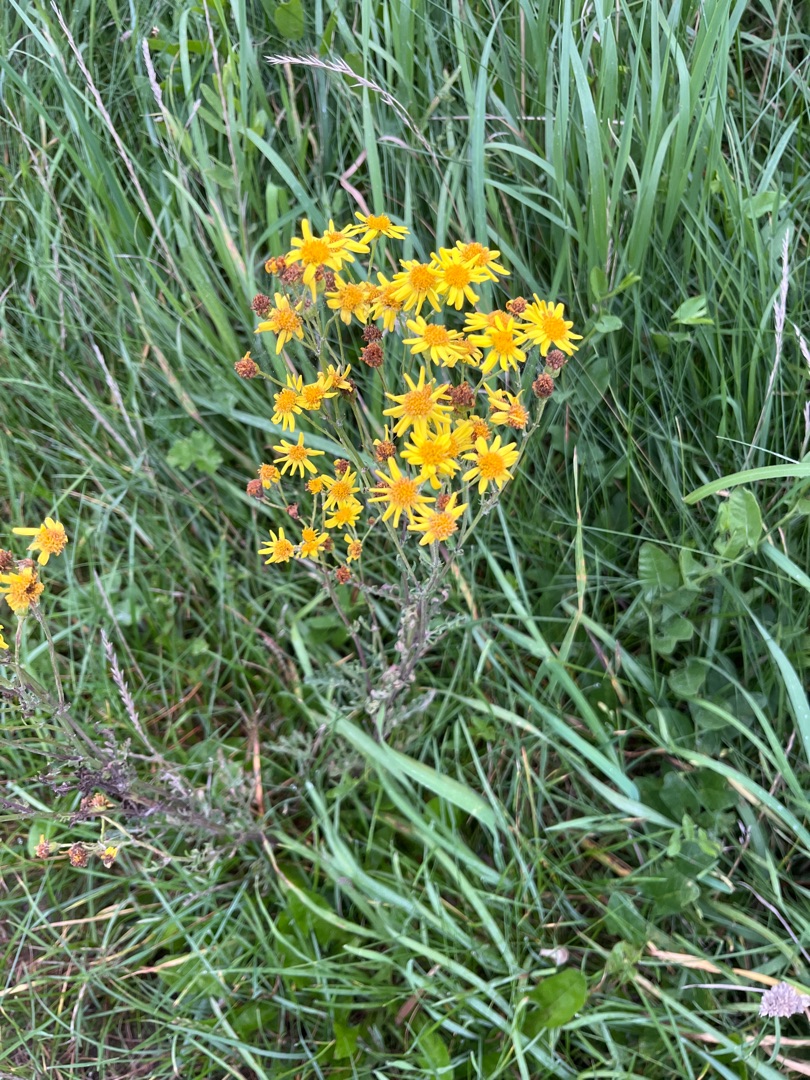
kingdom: Plantae
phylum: Tracheophyta
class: Magnoliopsida
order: Asterales
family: Asteraceae
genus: Jacobaea
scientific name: Jacobaea vulgaris
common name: Eng-brandbæger
